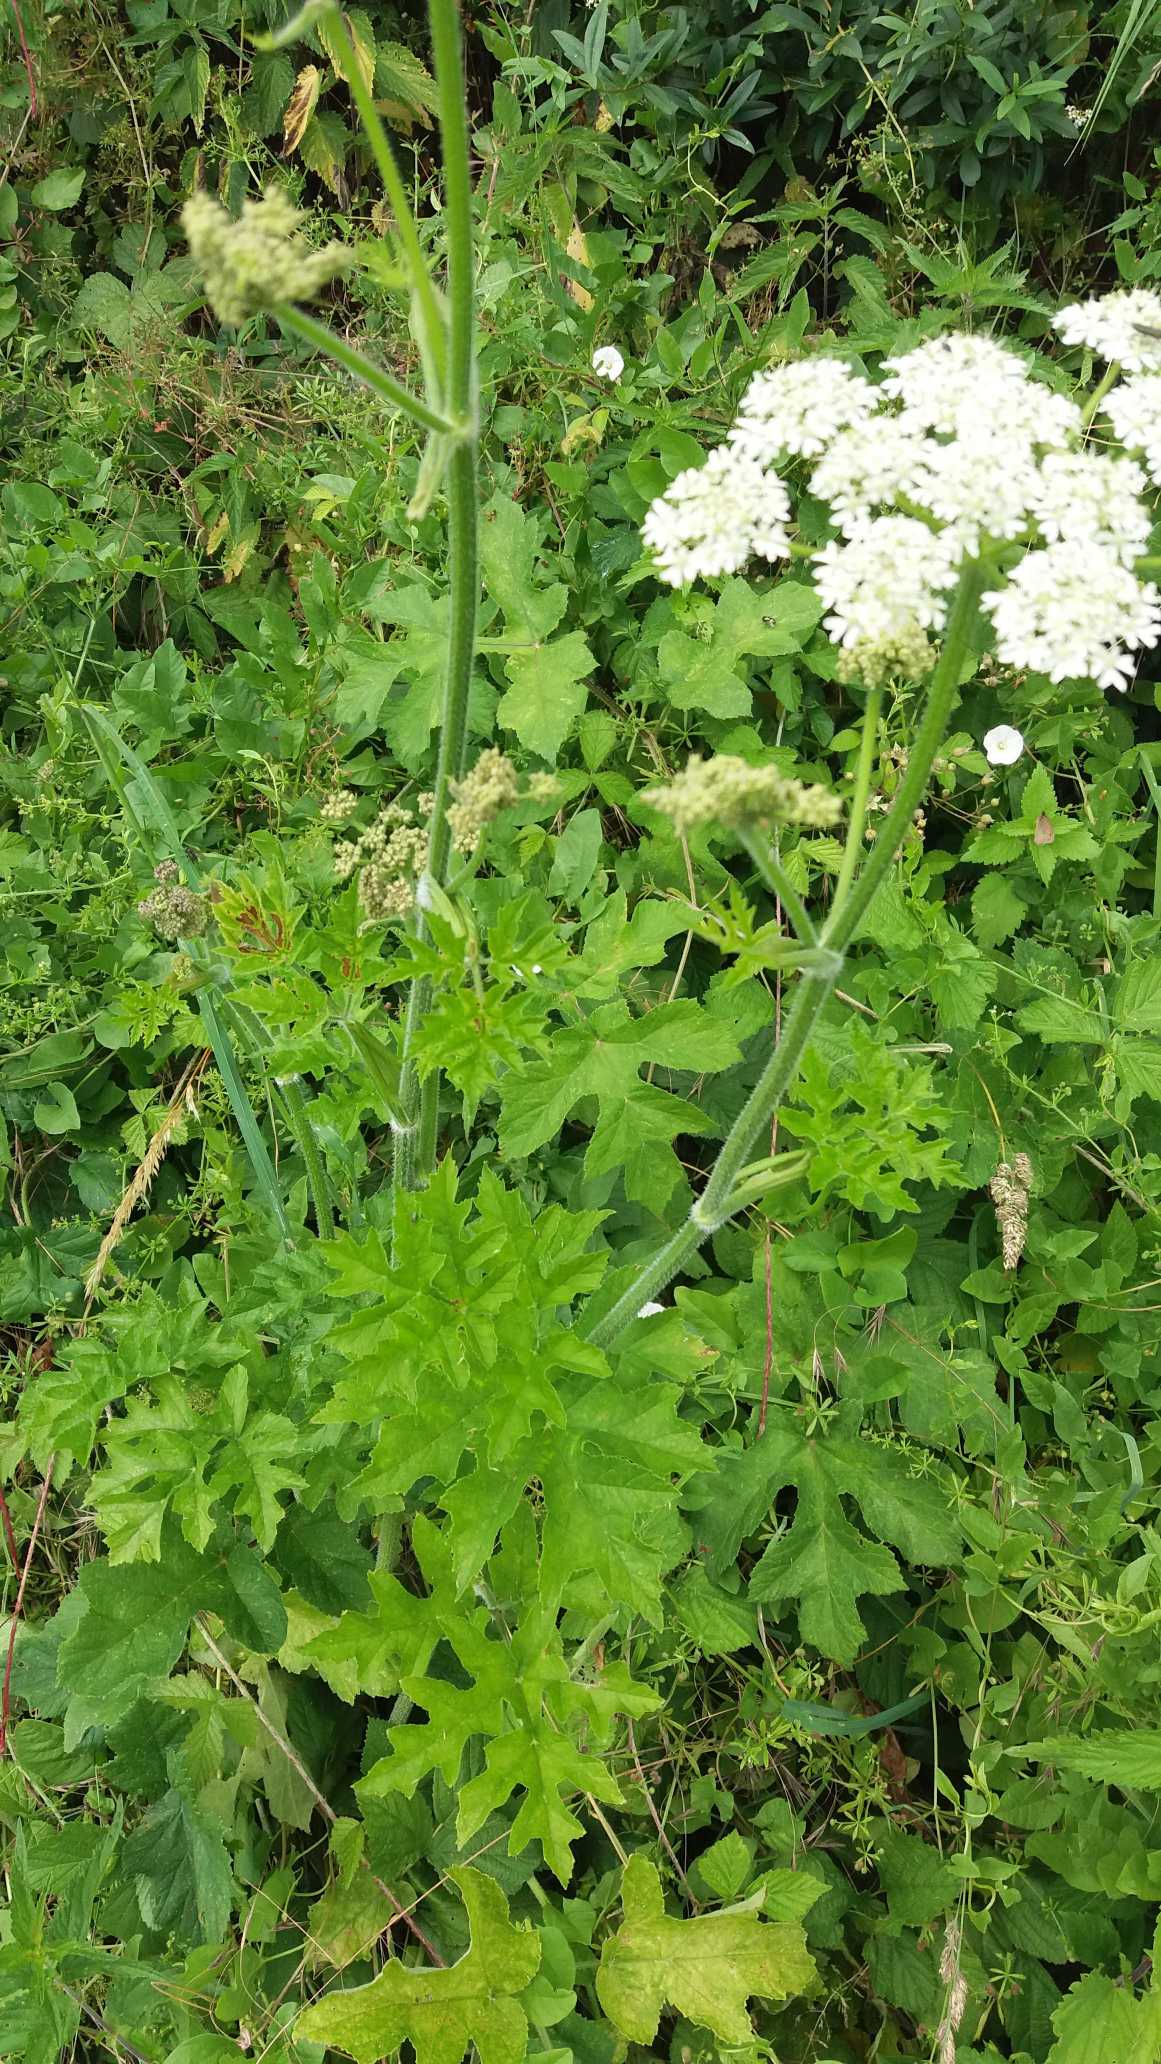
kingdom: Plantae
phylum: Tracheophyta
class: Magnoliopsida
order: Apiales
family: Apiaceae
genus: Heracleum
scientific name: Heracleum sphondylium
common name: Almindelig bjørneklo
